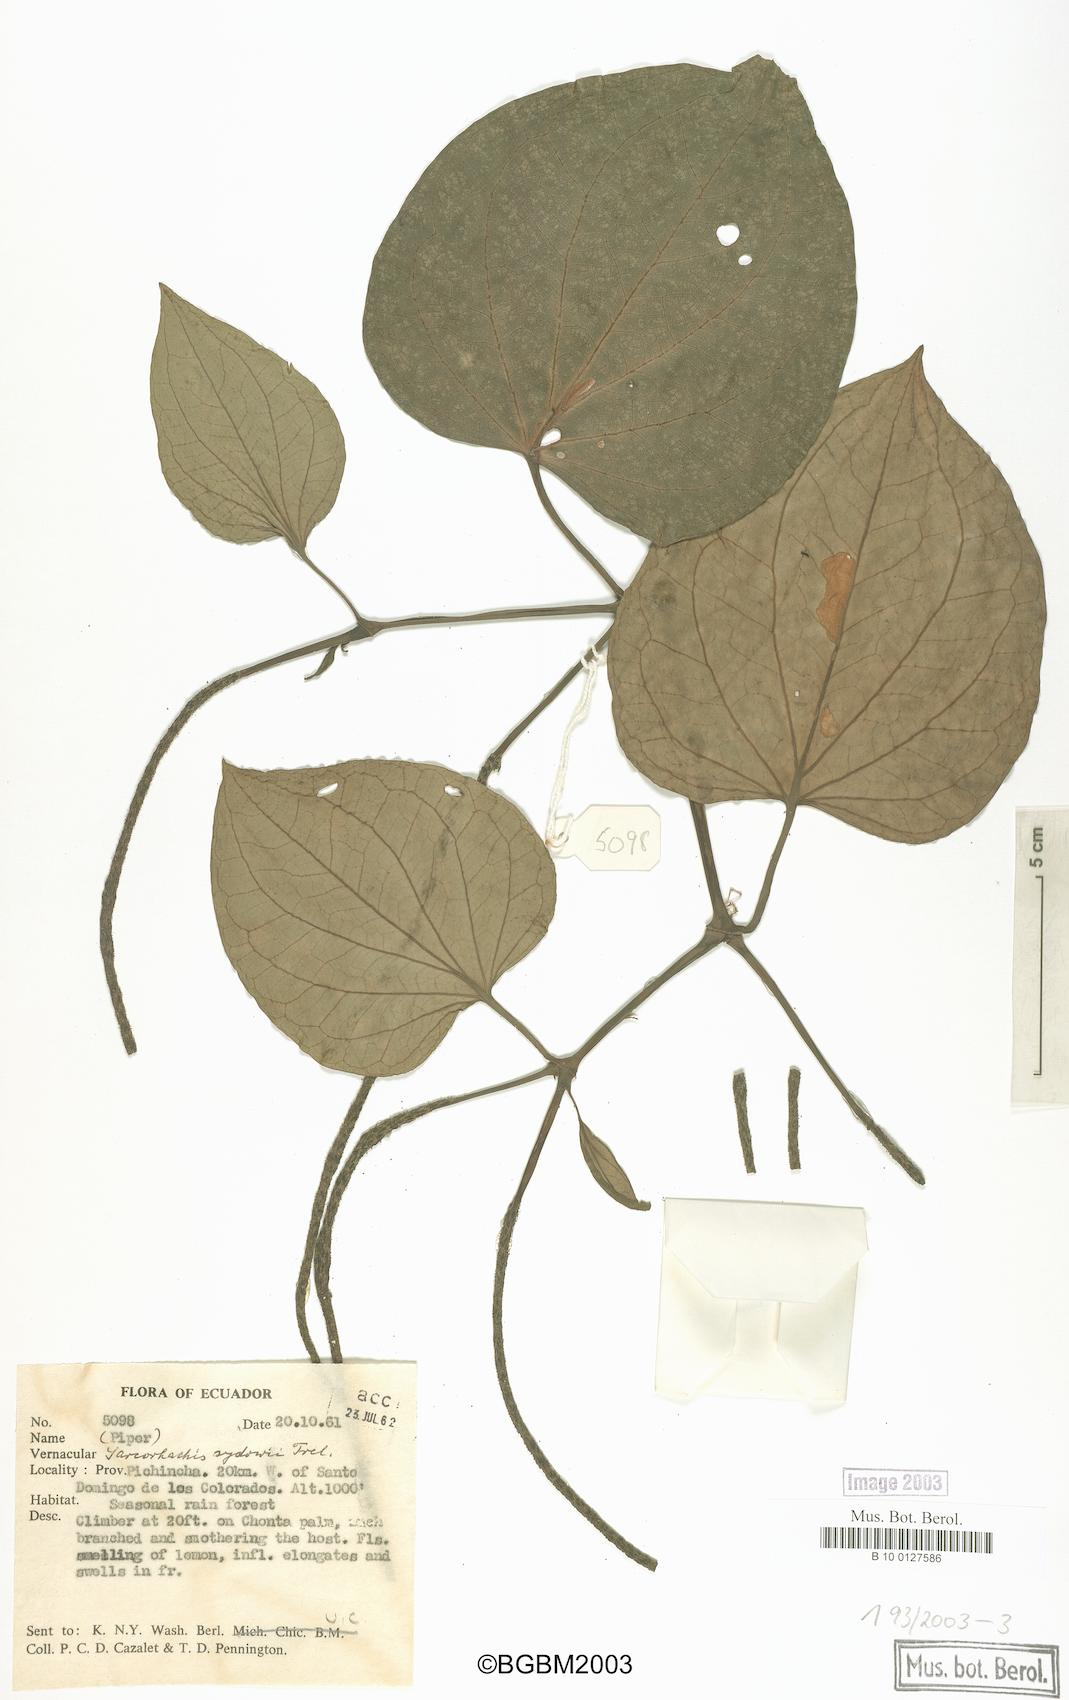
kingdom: Plantae
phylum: Tracheophyta
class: Magnoliopsida
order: Piperales
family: Piperaceae
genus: Manekia
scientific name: Manekia incurva
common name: Wild black-pepper
